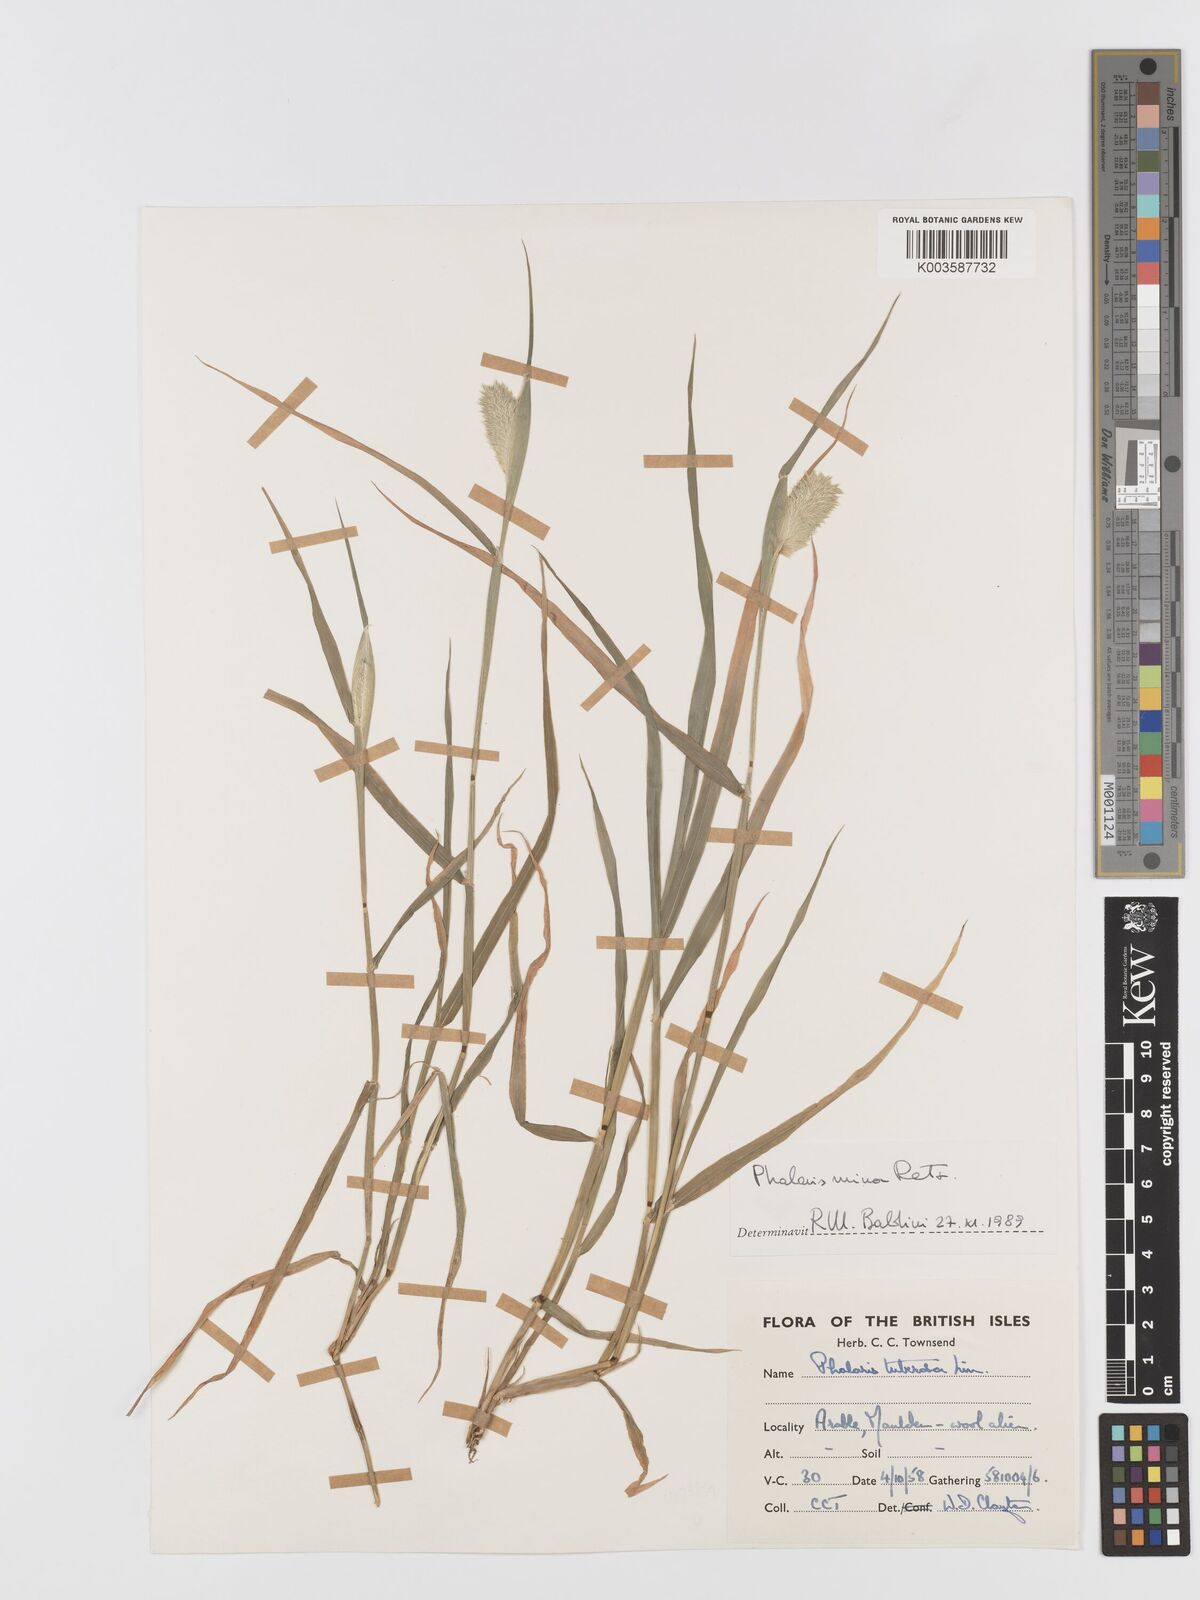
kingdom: Plantae
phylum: Tracheophyta
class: Liliopsida
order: Poales
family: Poaceae
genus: Phalaris
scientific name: Phalaris minor
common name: Littleseed canarygrass
